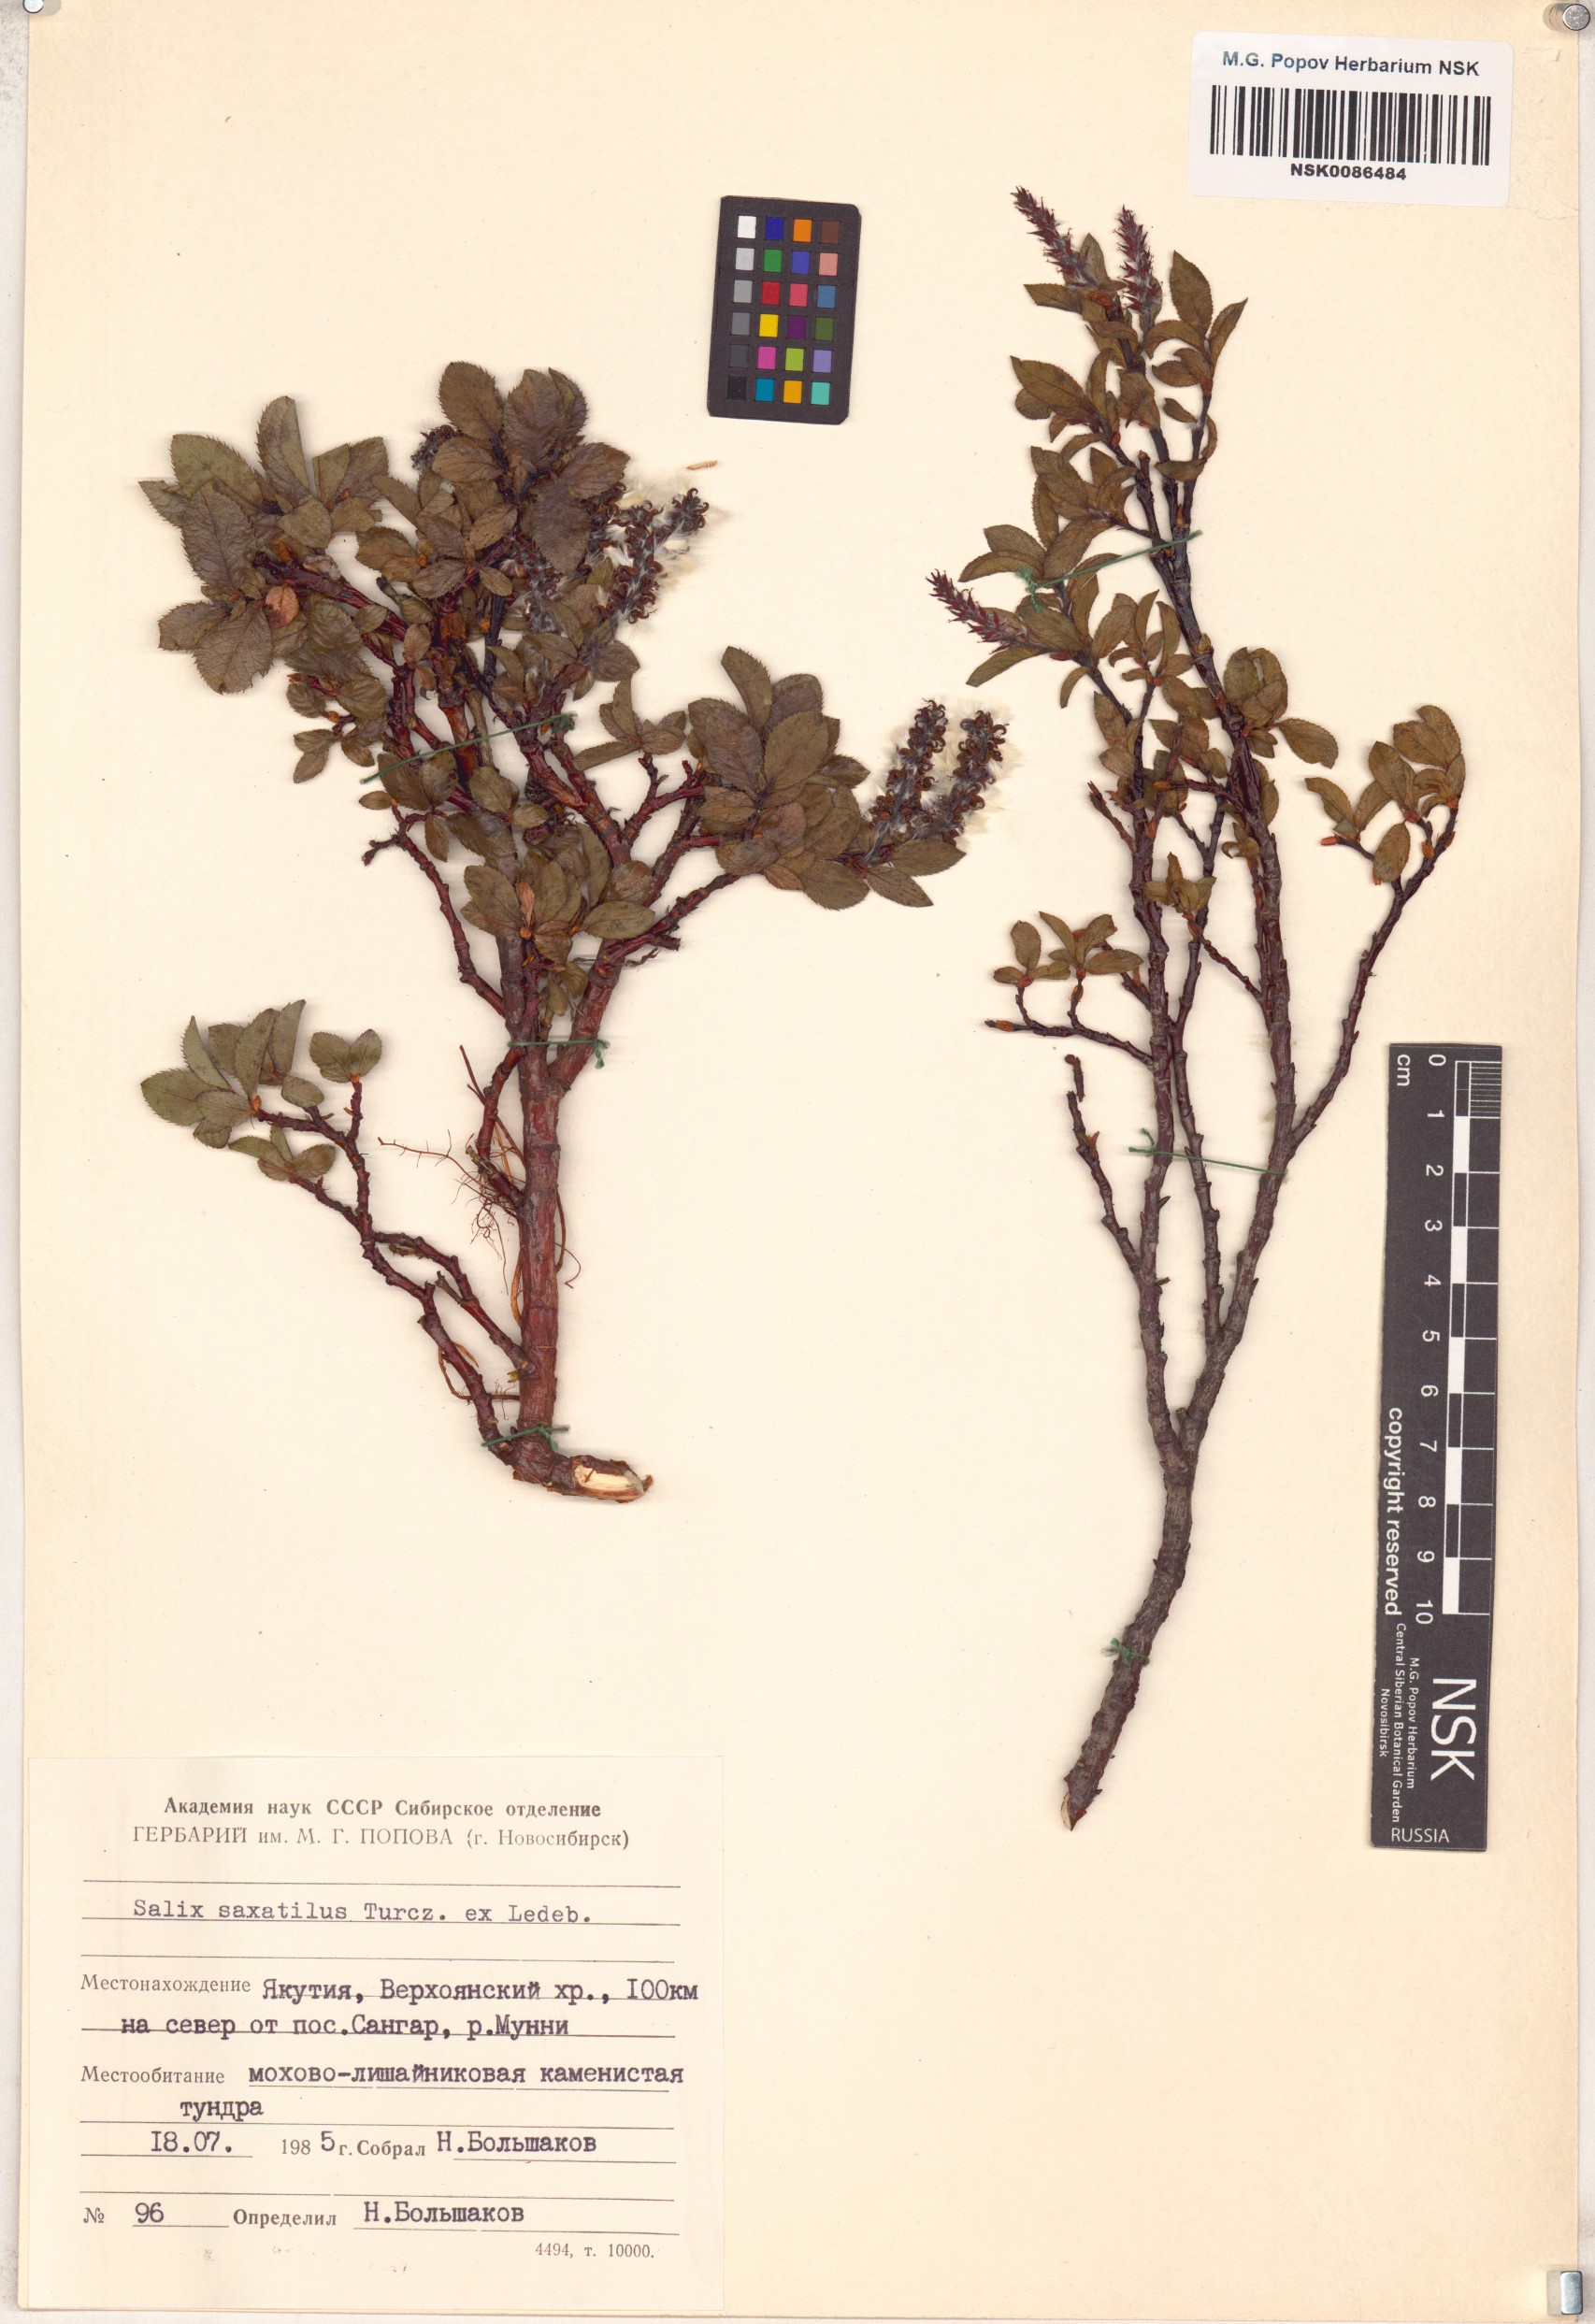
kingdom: Plantae
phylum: Tracheophyta
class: Magnoliopsida
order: Malpighiales
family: Salicaceae
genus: Salix
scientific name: Salix saxatilis
